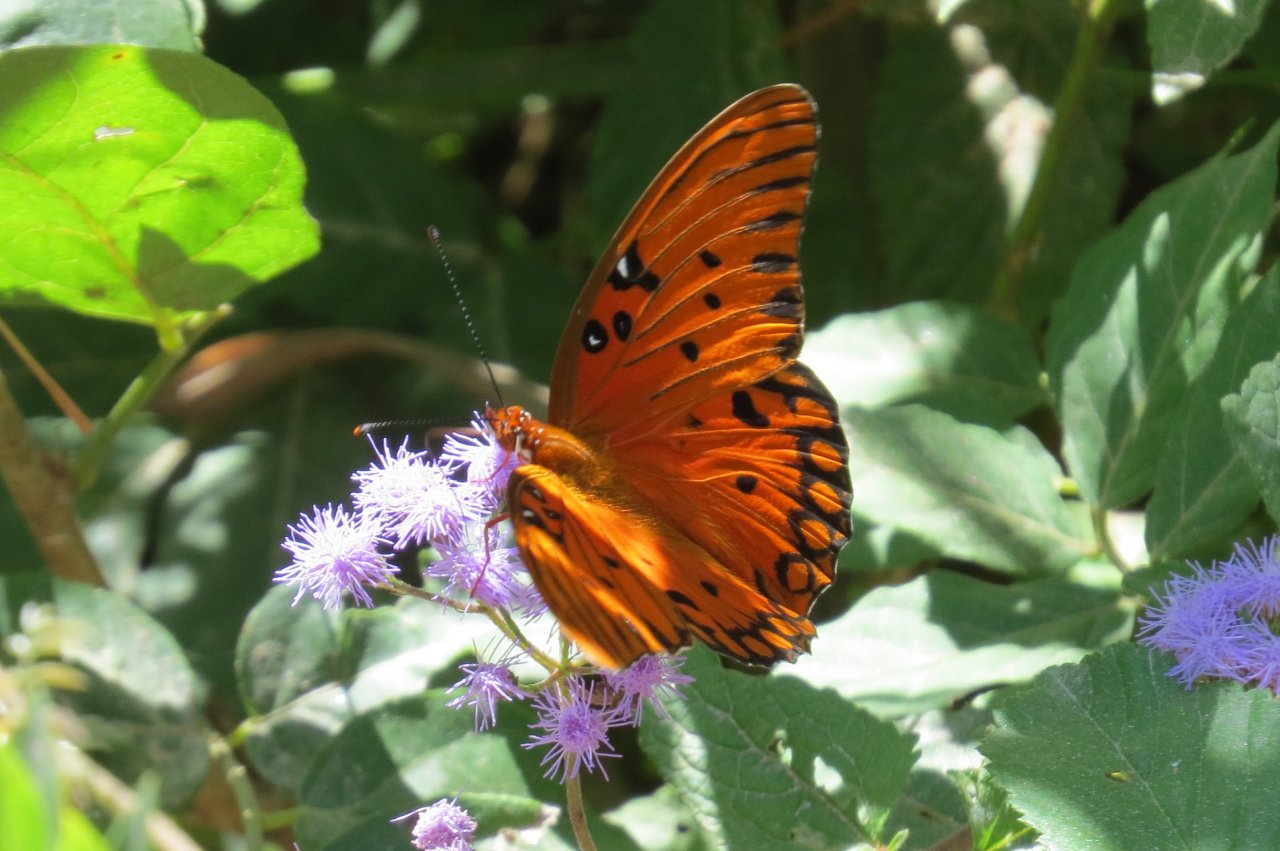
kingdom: Animalia
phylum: Arthropoda
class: Insecta
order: Lepidoptera
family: Nymphalidae
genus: Dione
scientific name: Dione vanillae
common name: Gulf Fritillary
